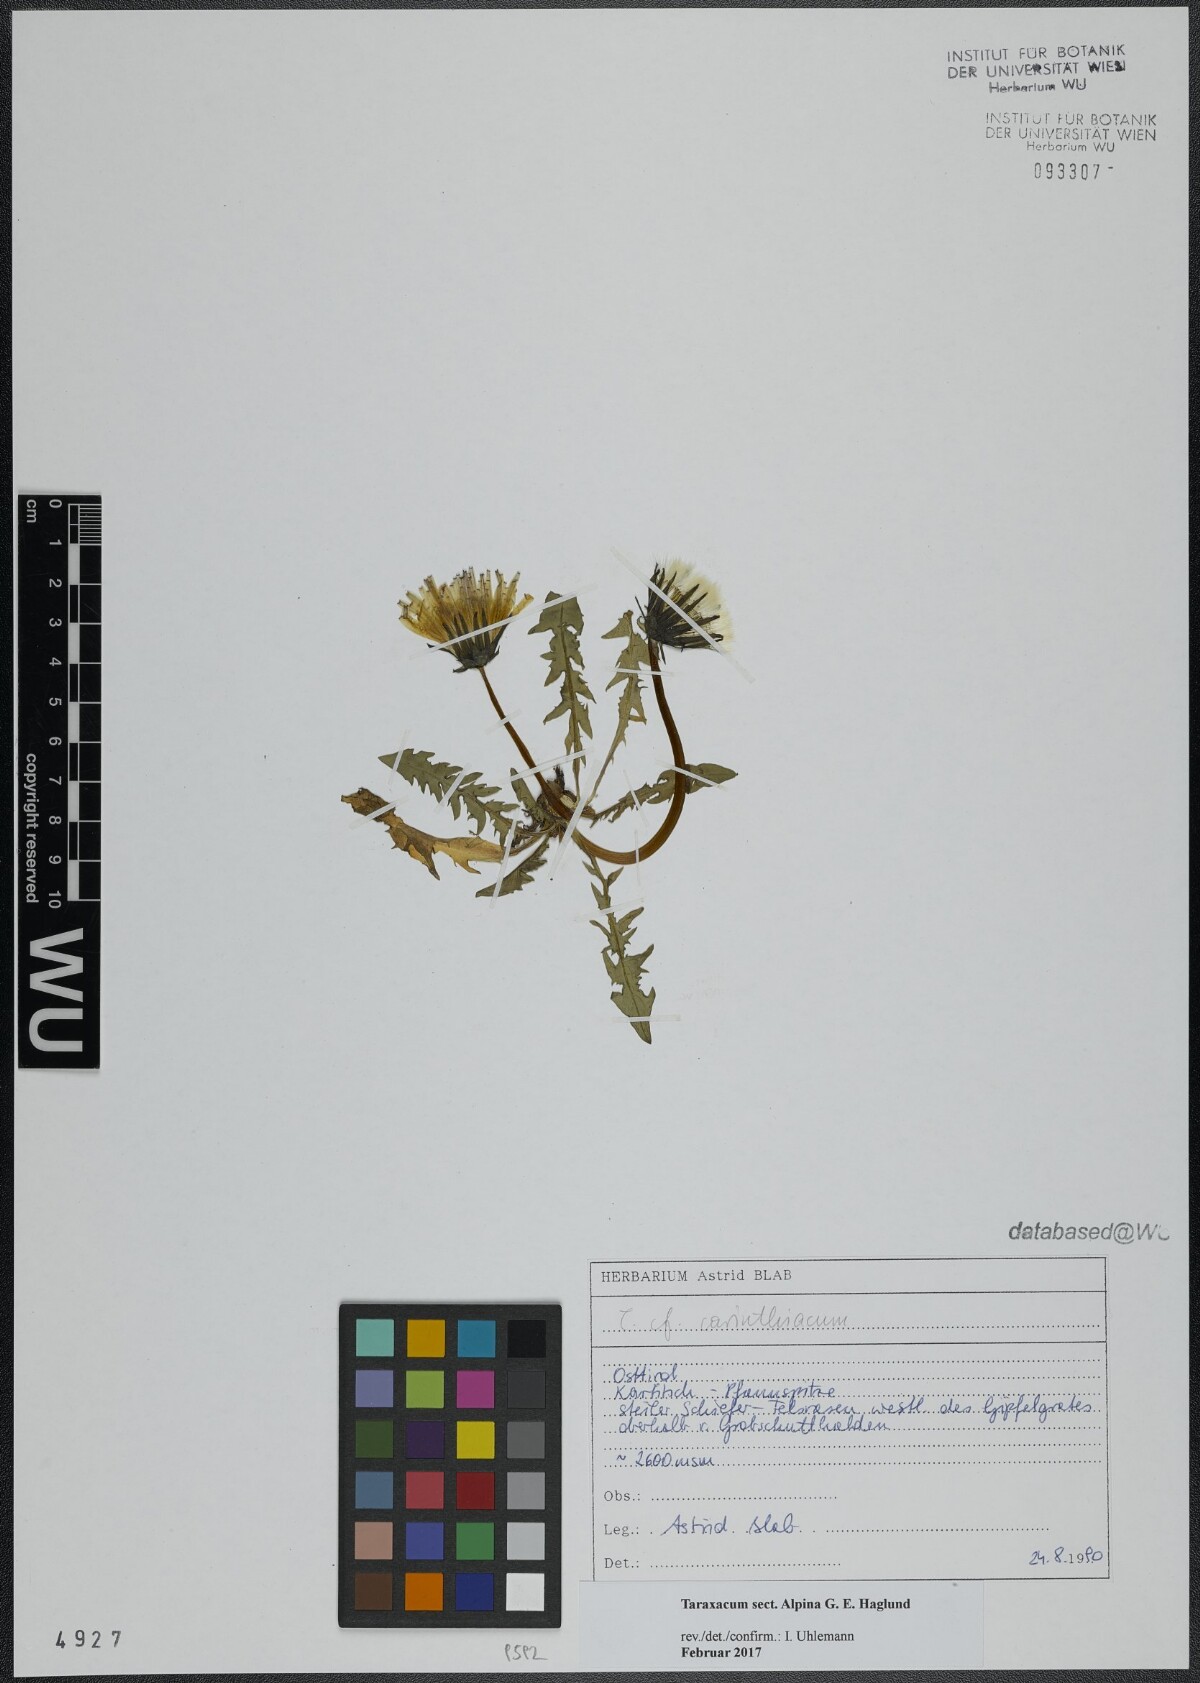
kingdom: Plantae
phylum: Tracheophyta
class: Magnoliopsida
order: Asterales
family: Asteraceae
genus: Taraxacum
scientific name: Taraxacum
